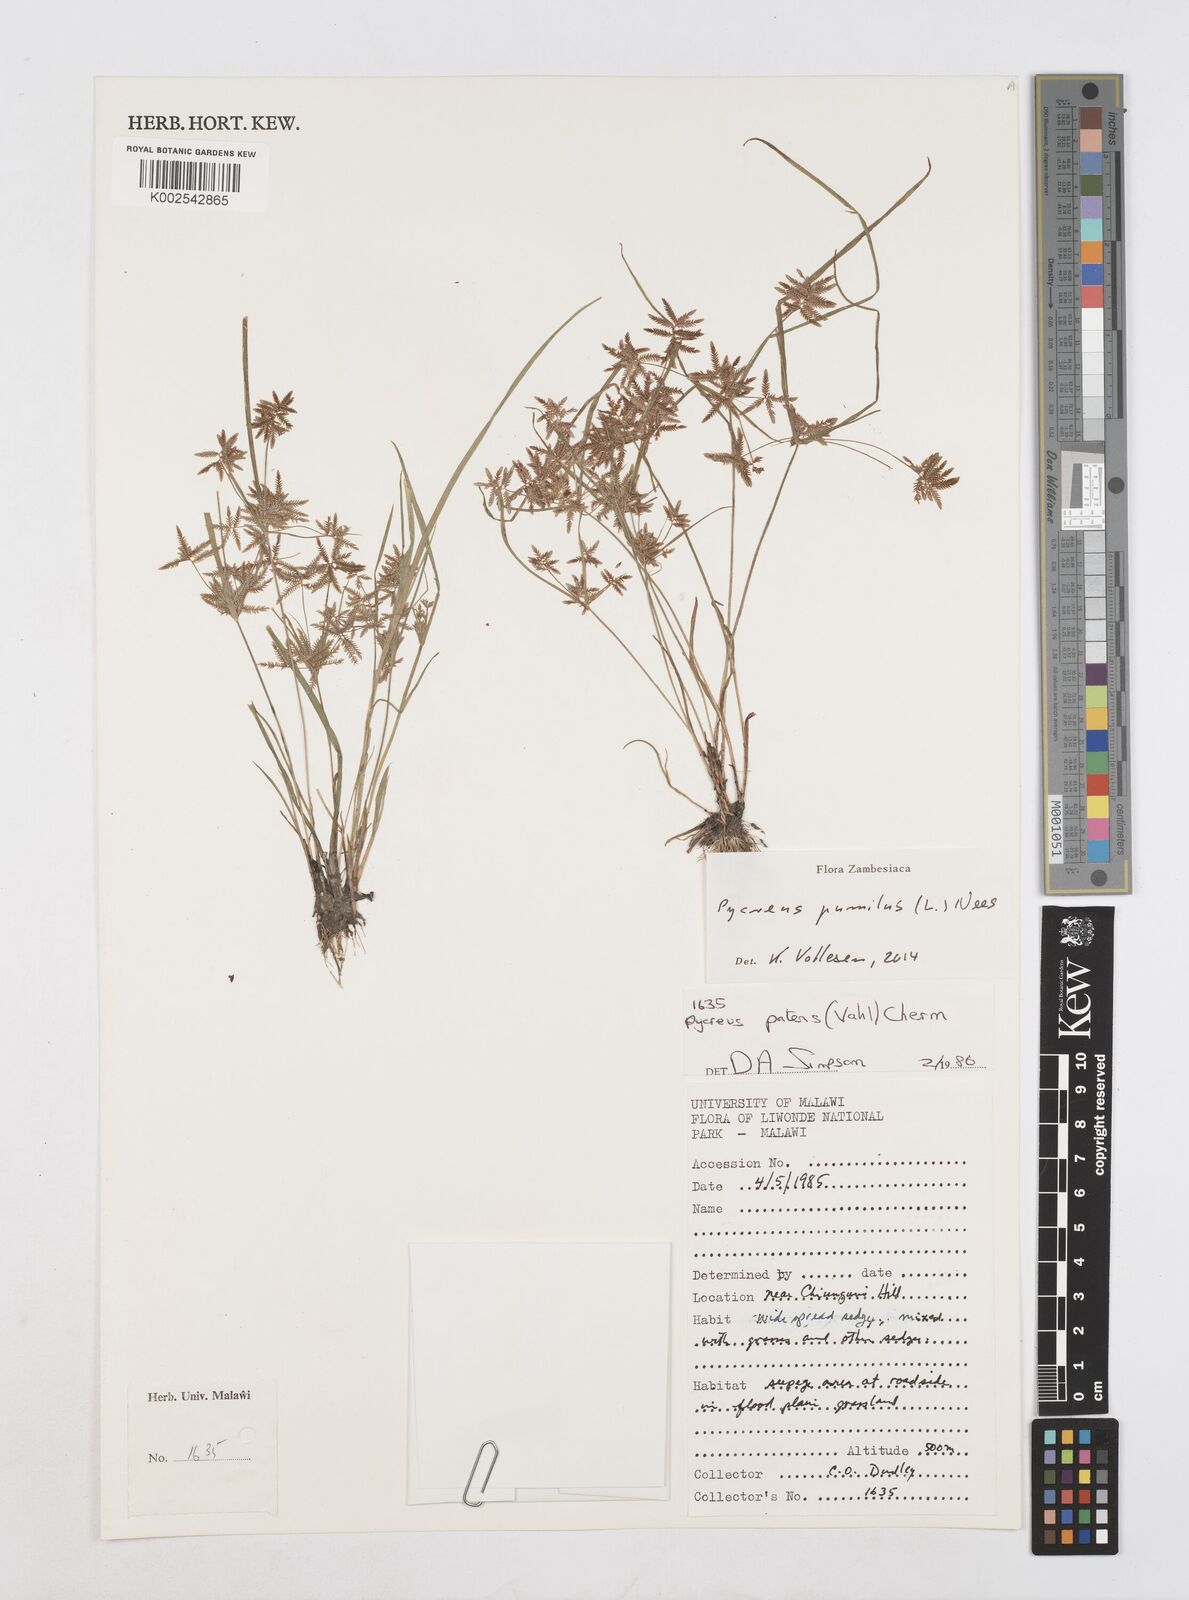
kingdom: Plantae
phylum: Tracheophyta
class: Liliopsida
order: Poales
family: Cyperaceae
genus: Cyperus
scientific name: Cyperus pumilus
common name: Low flatsedge
